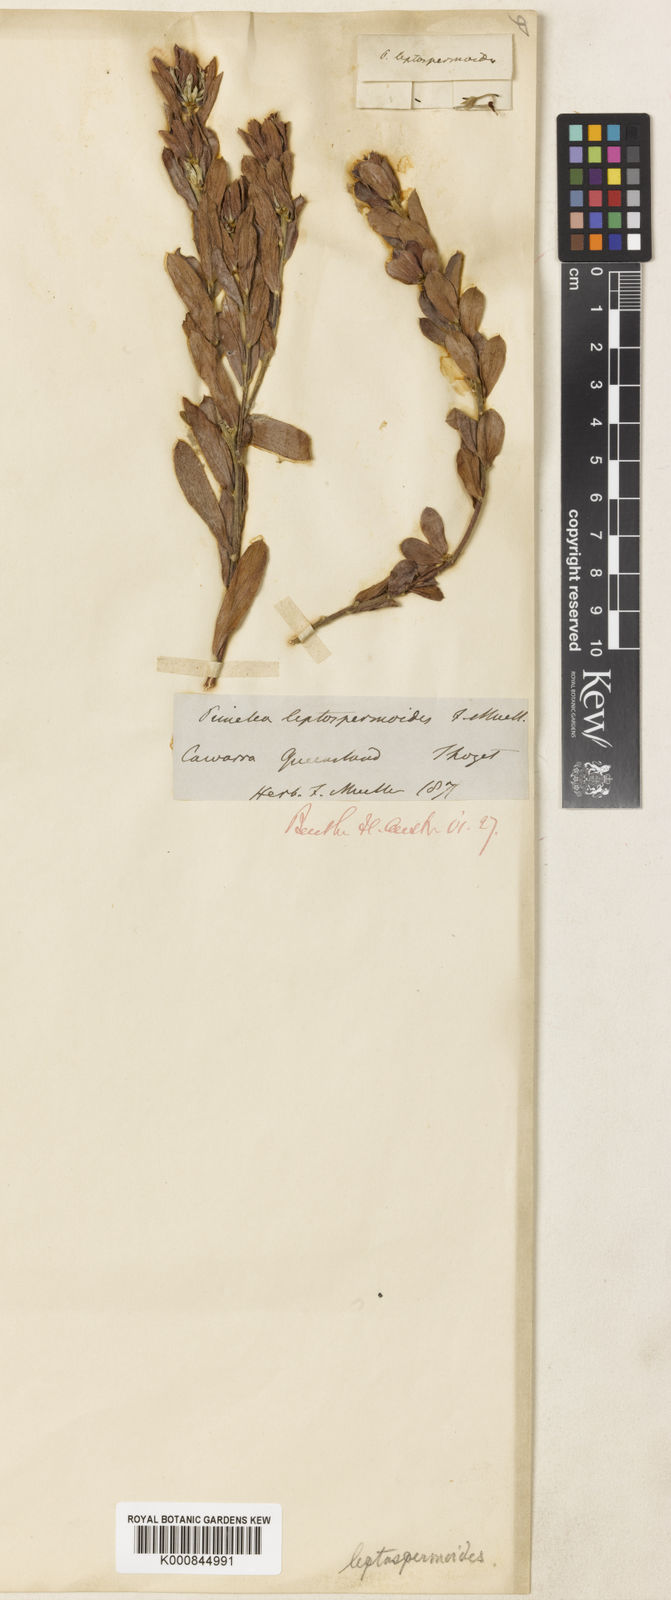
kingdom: Plantae
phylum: Tracheophyta
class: Magnoliopsida
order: Malvales
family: Thymelaeaceae
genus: Pimelea
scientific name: Pimelea leptospermoides
